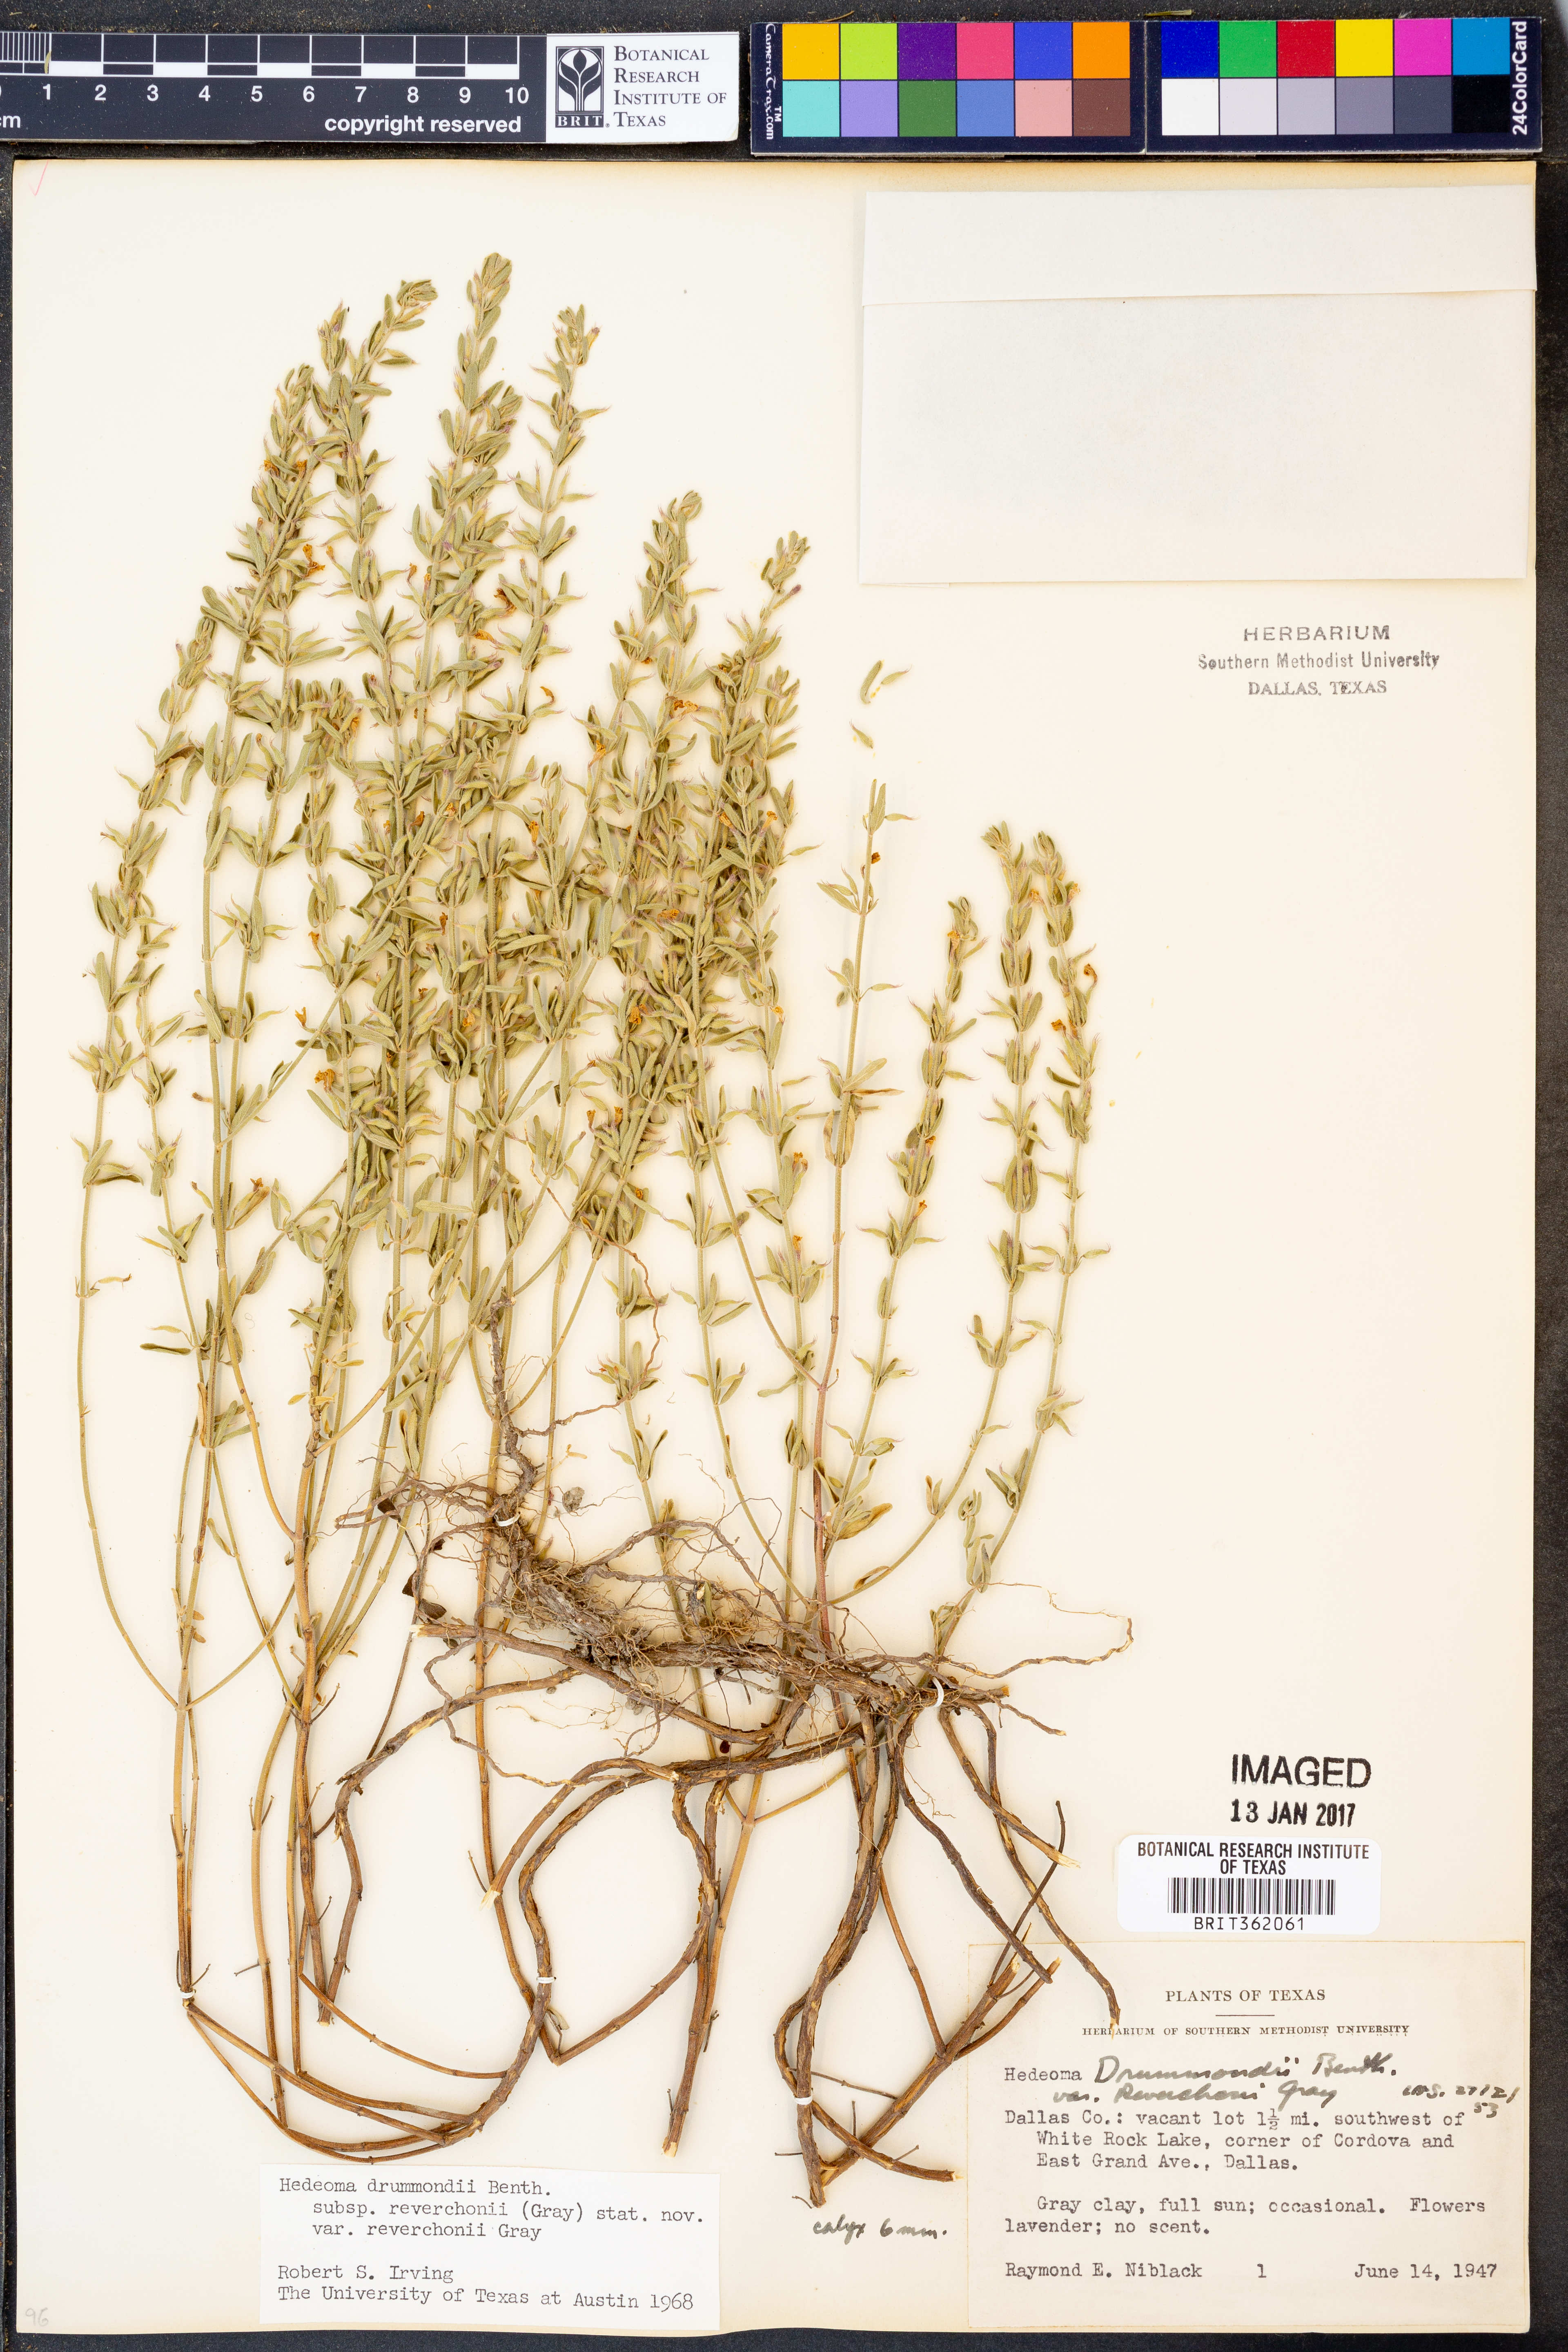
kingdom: Plantae
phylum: Tracheophyta
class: Magnoliopsida
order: Lamiales
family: Lamiaceae
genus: Hedeoma
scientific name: Hedeoma reverchonii
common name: Reverchon's false penny-royal
